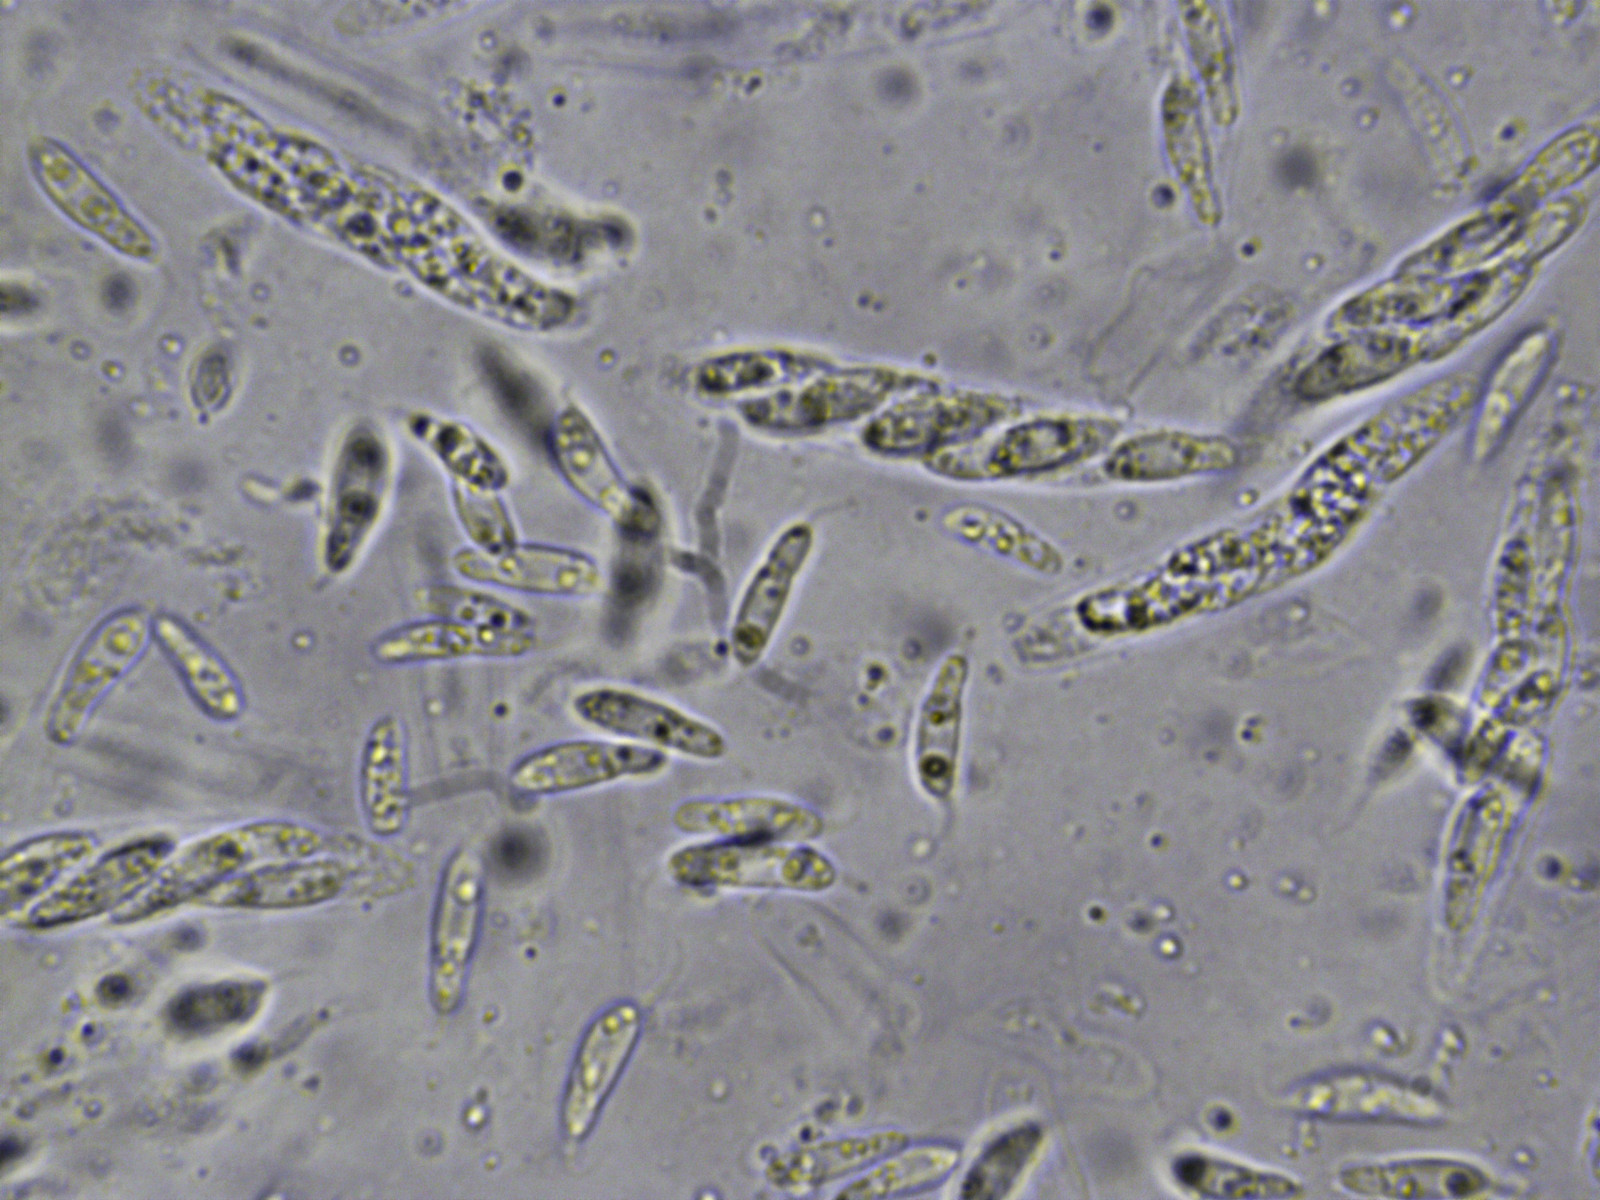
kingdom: Fungi
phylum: Ascomycota
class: Sordariomycetes
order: Diaporthales
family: Gnomoniaceae
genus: Anisogramma
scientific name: Anisogramma vepris
